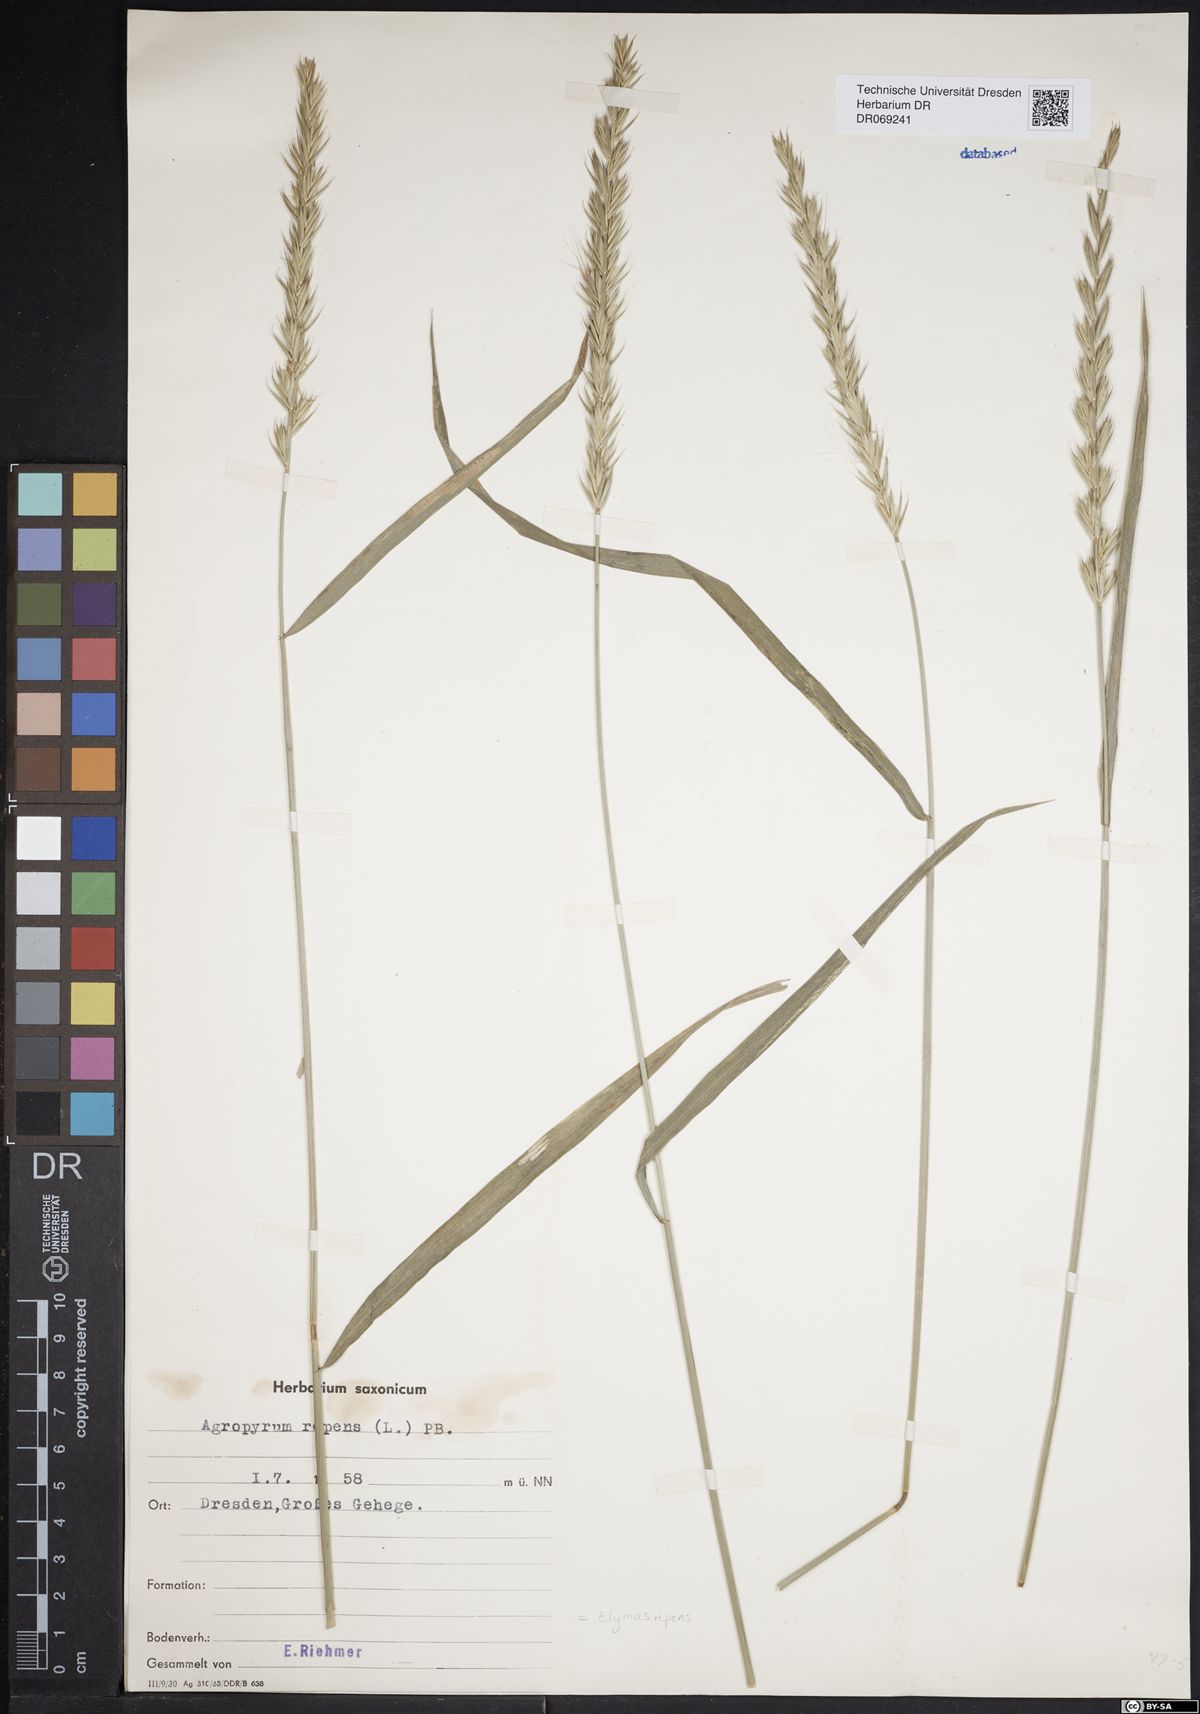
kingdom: Plantae
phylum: Tracheophyta
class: Liliopsida
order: Poales
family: Poaceae
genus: Elymus
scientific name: Elymus repens
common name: Quackgrass
